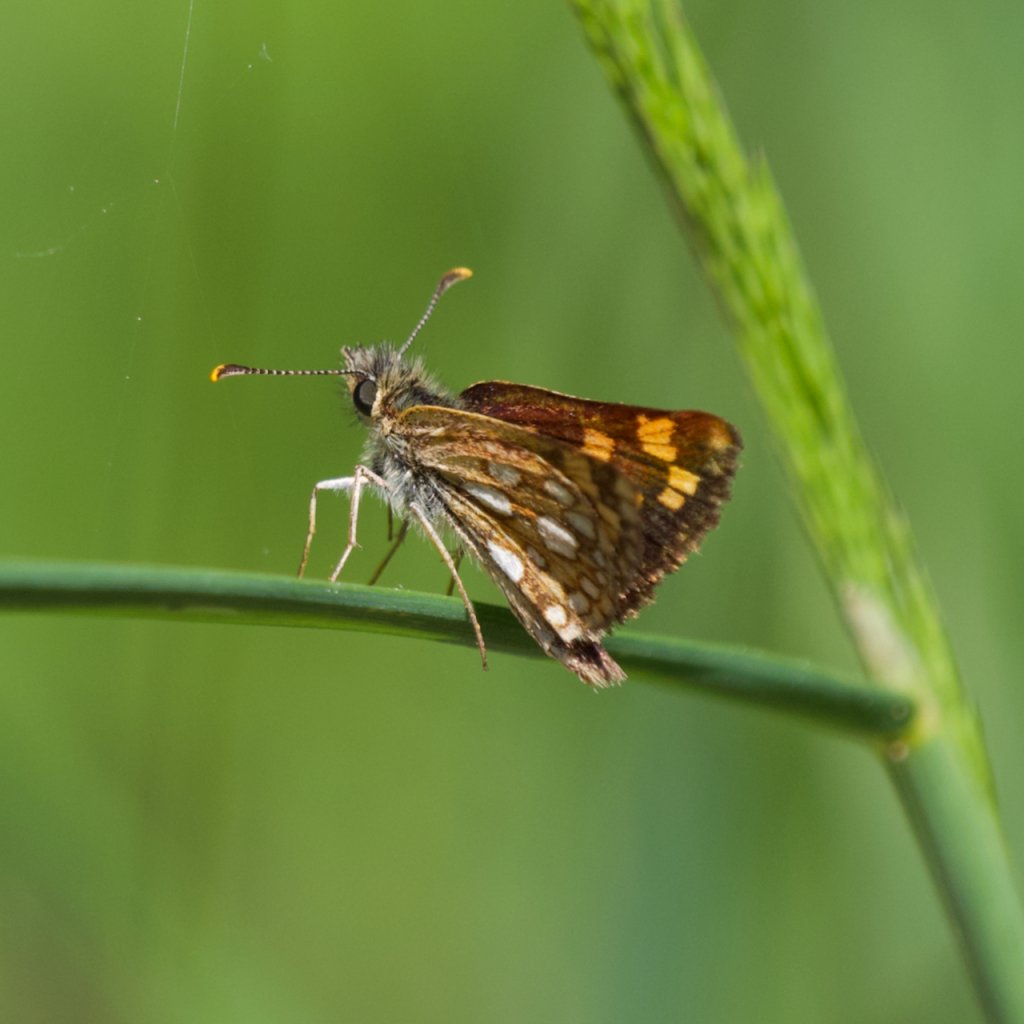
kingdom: Animalia
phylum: Arthropoda
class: Insecta
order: Lepidoptera
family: Hesperiidae
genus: Carterocephalus
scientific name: Carterocephalus palaemon
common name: Chequered Skipper
